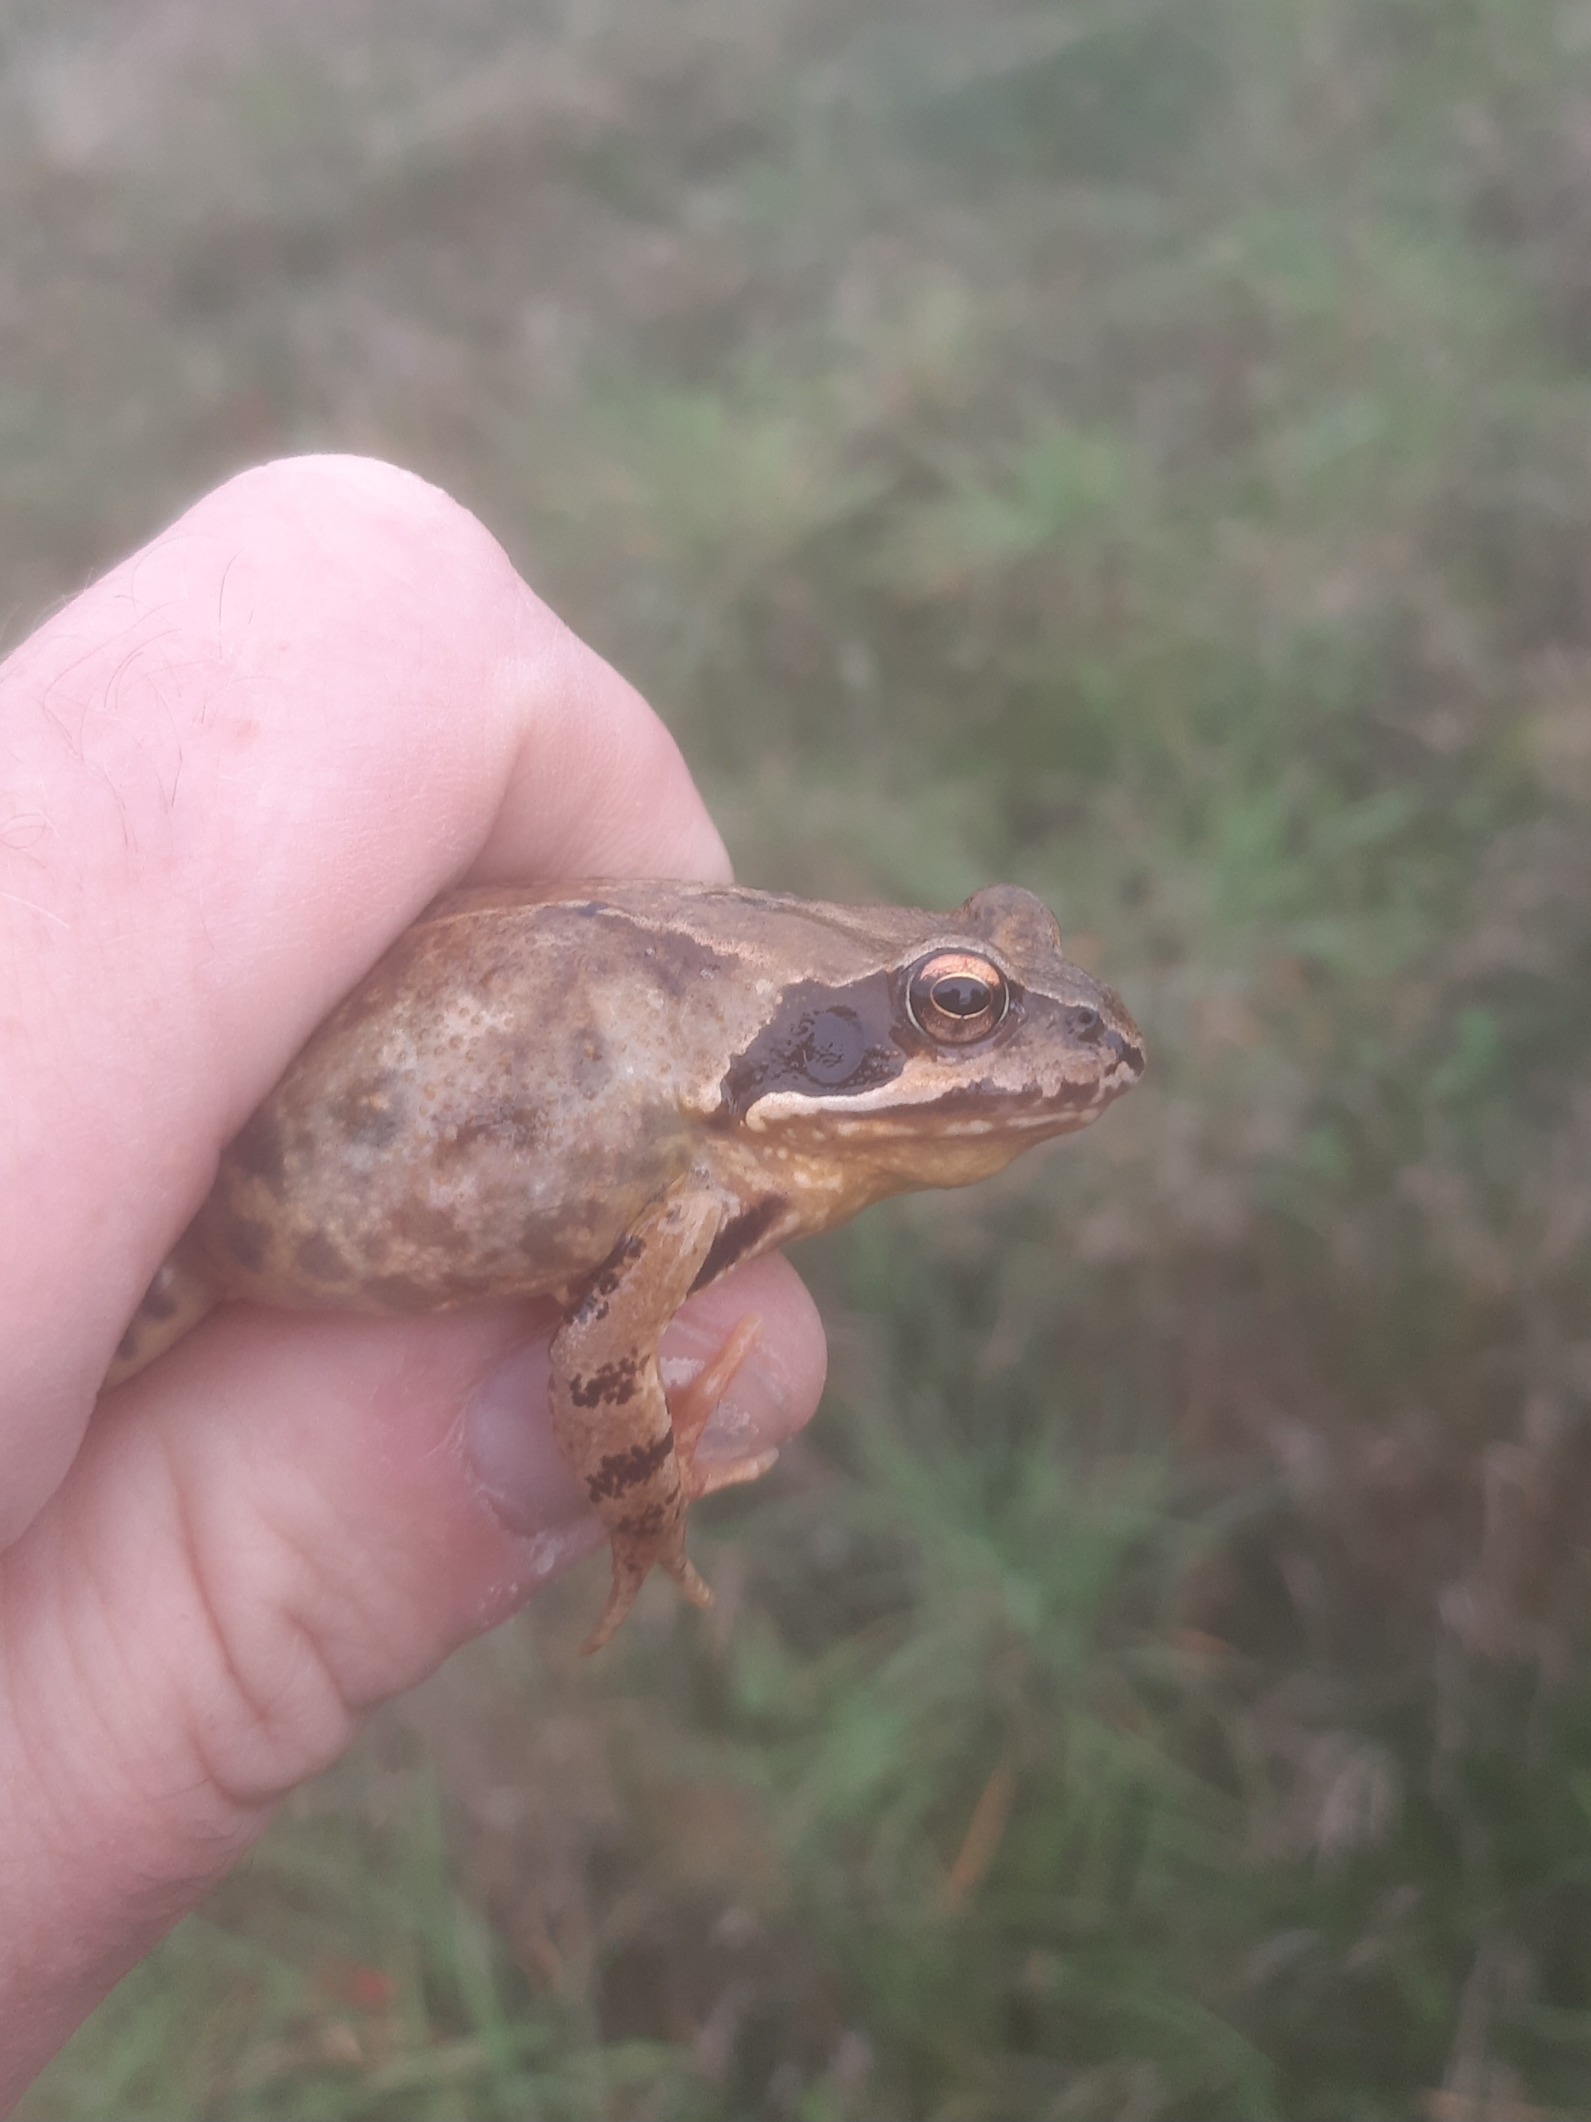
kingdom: Animalia
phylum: Chordata
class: Amphibia
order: Anura
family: Ranidae
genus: Rana
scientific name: Rana temporaria
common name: Butsnudet frø
